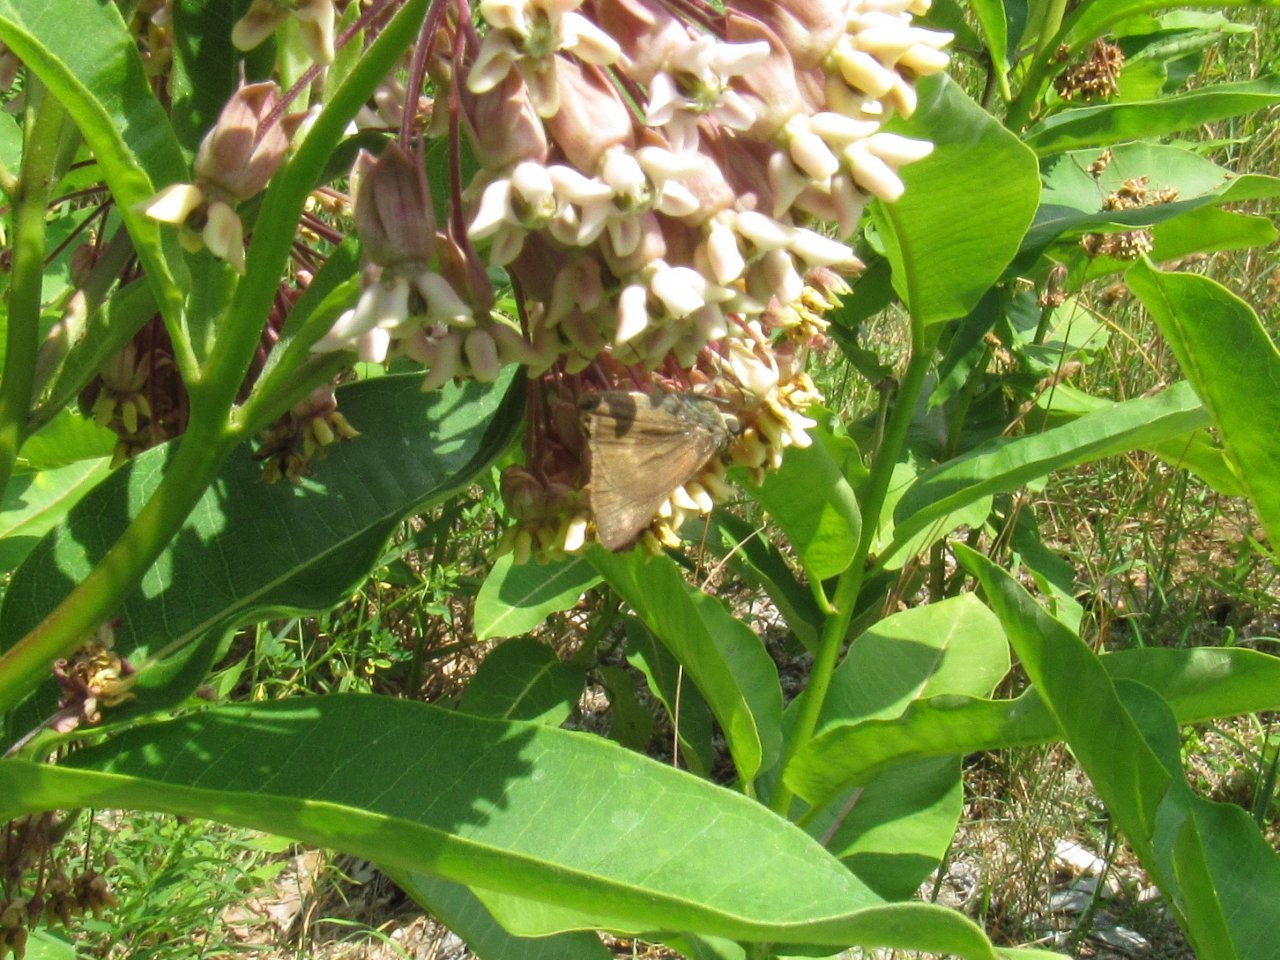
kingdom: Animalia
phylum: Arthropoda
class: Insecta
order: Lepidoptera
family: Hesperiidae
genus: Euphyes
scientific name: Euphyes
